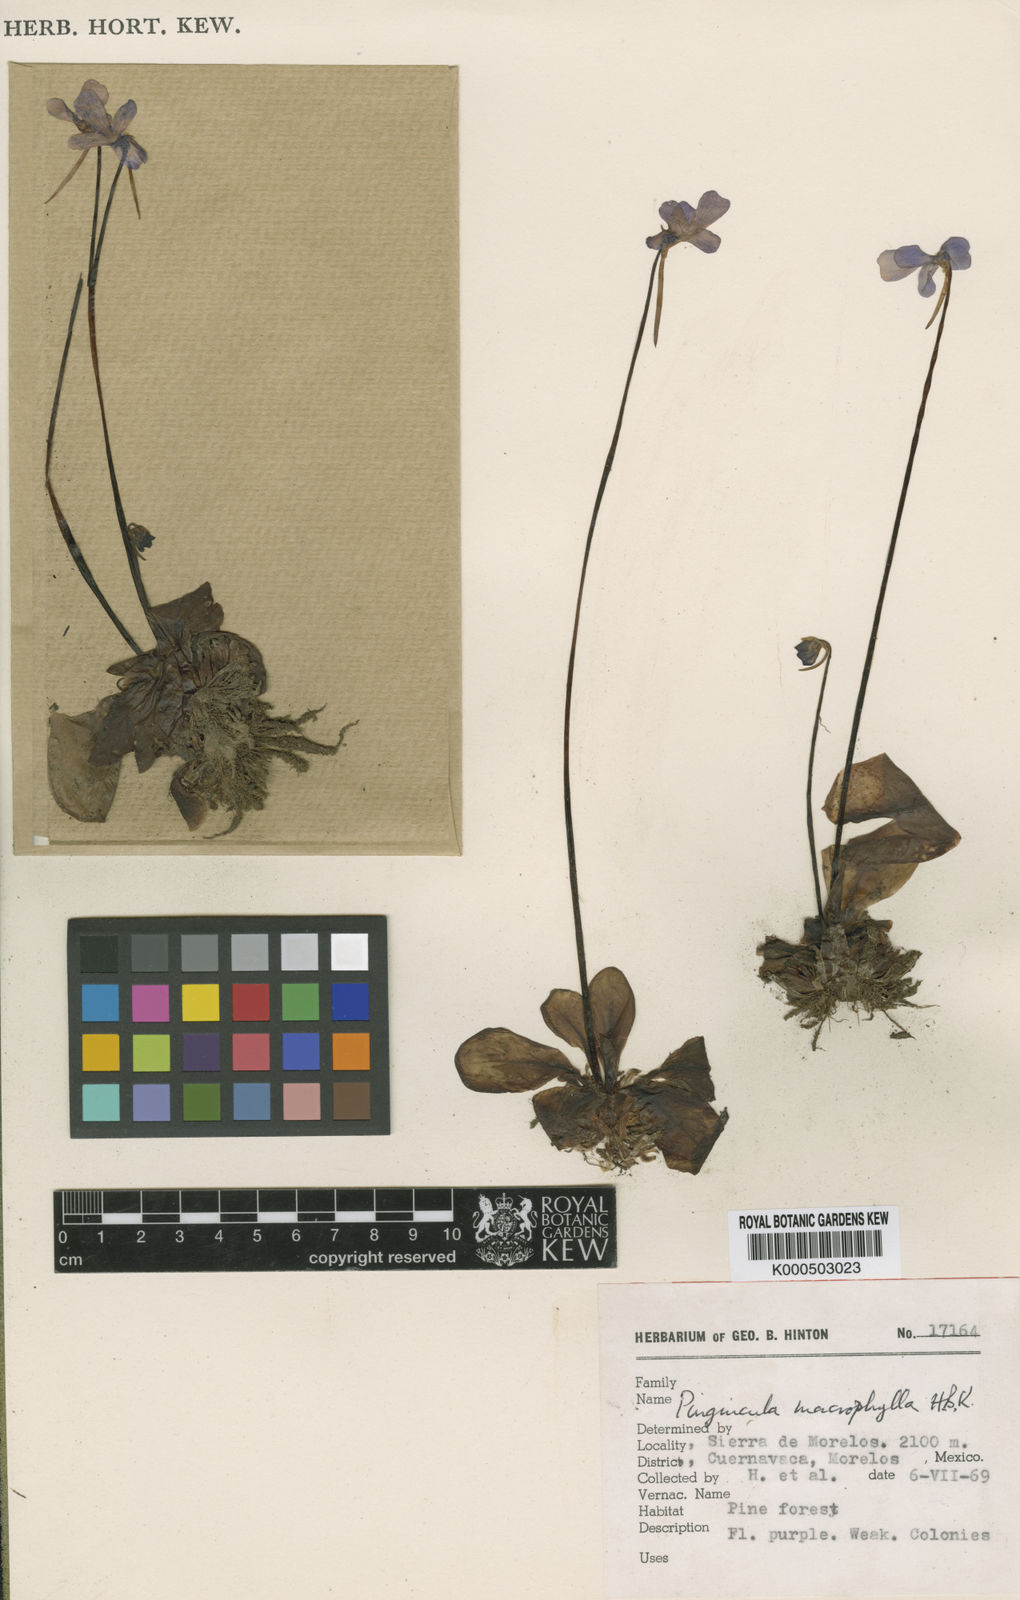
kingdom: Plantae
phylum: Tracheophyta
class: Magnoliopsida
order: Lamiales
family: Lentibulariaceae
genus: Pinguicula
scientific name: Pinguicula moranensis
